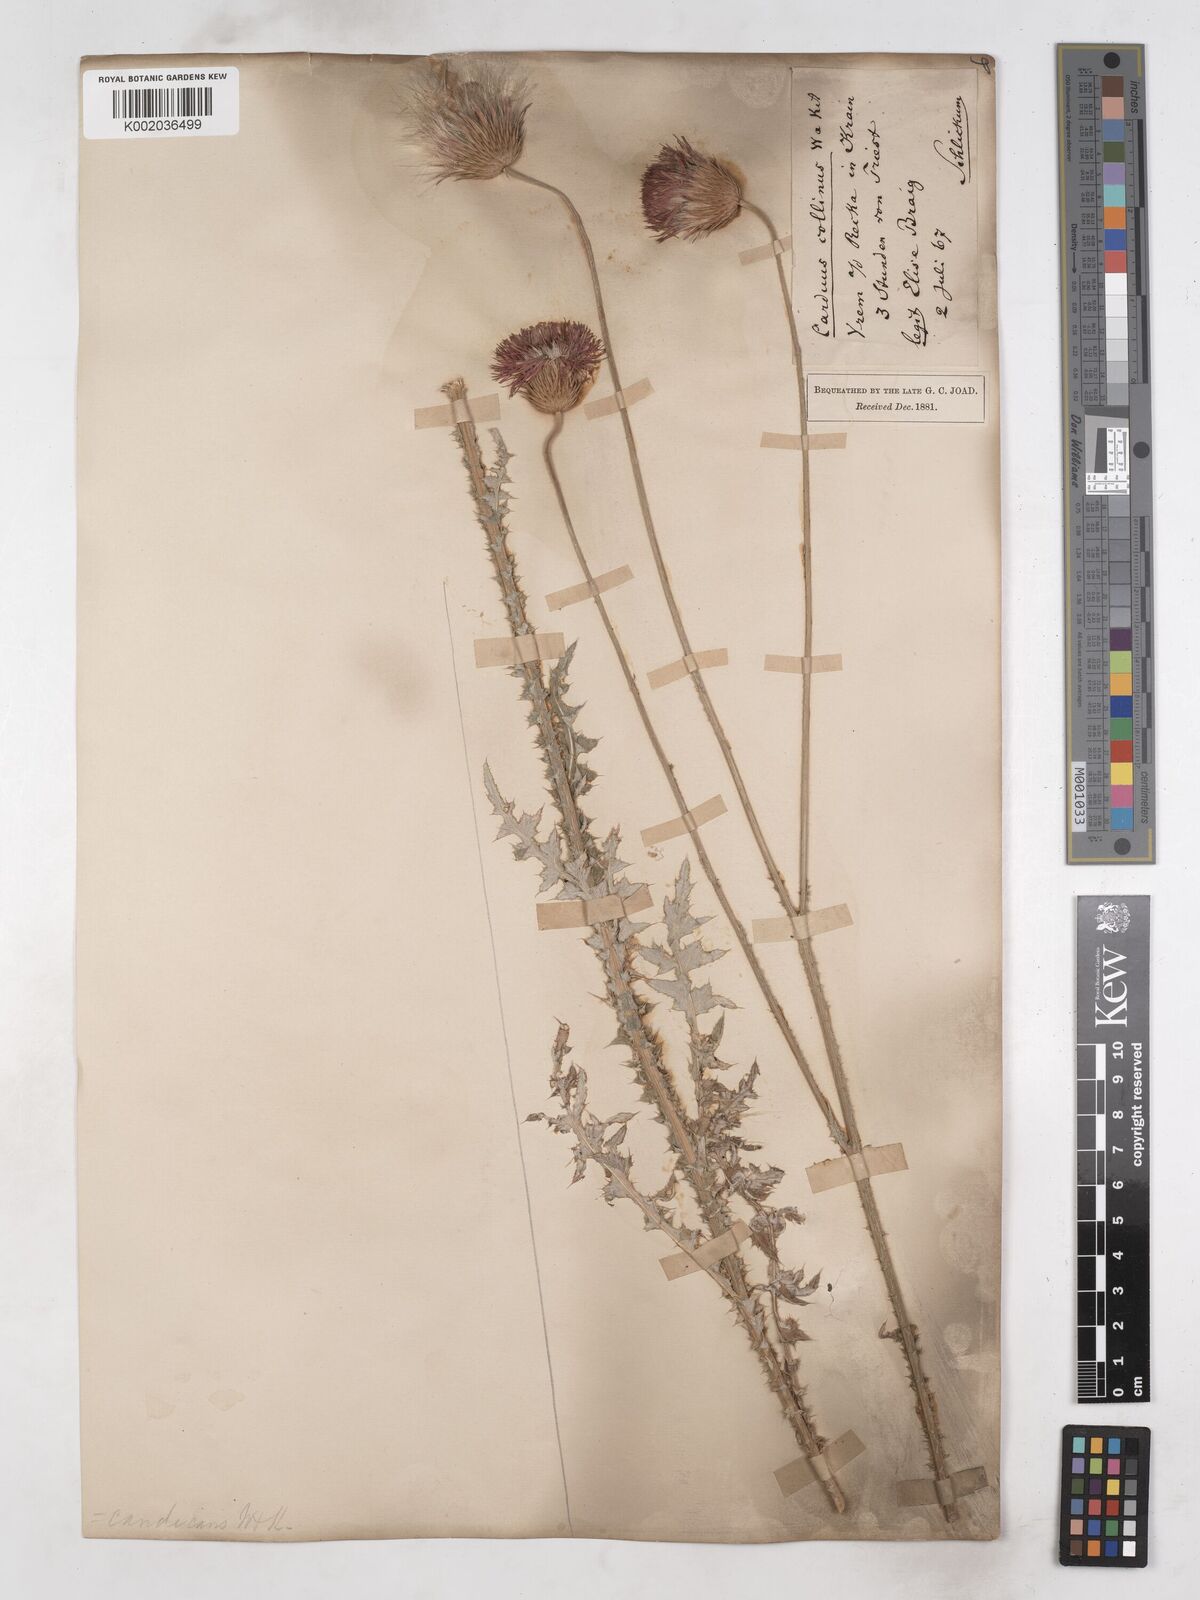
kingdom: Plantae
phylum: Tracheophyta
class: Magnoliopsida
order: Asterales
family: Asteraceae
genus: Carduus
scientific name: Carduus collinus
